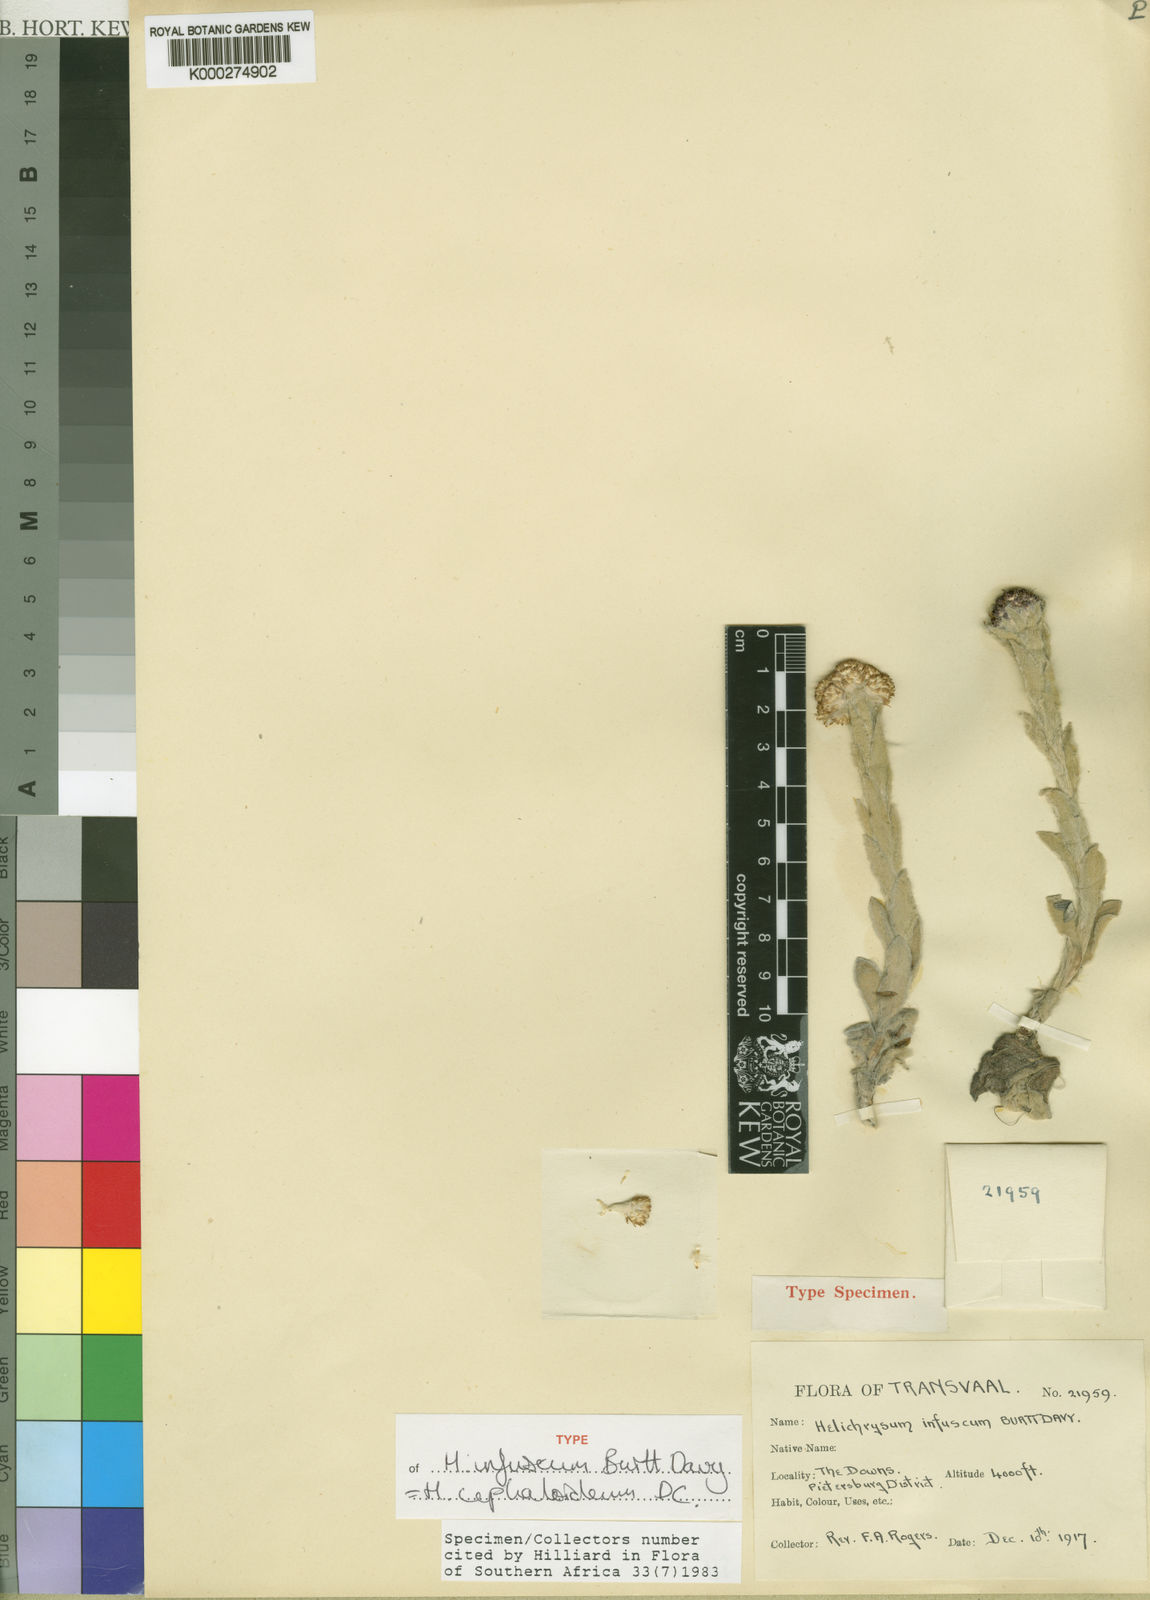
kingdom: Plantae
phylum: Tracheophyta
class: Magnoliopsida
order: Asterales
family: Asteraceae
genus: Helichrysum
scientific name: Helichrysum cephaloideum
